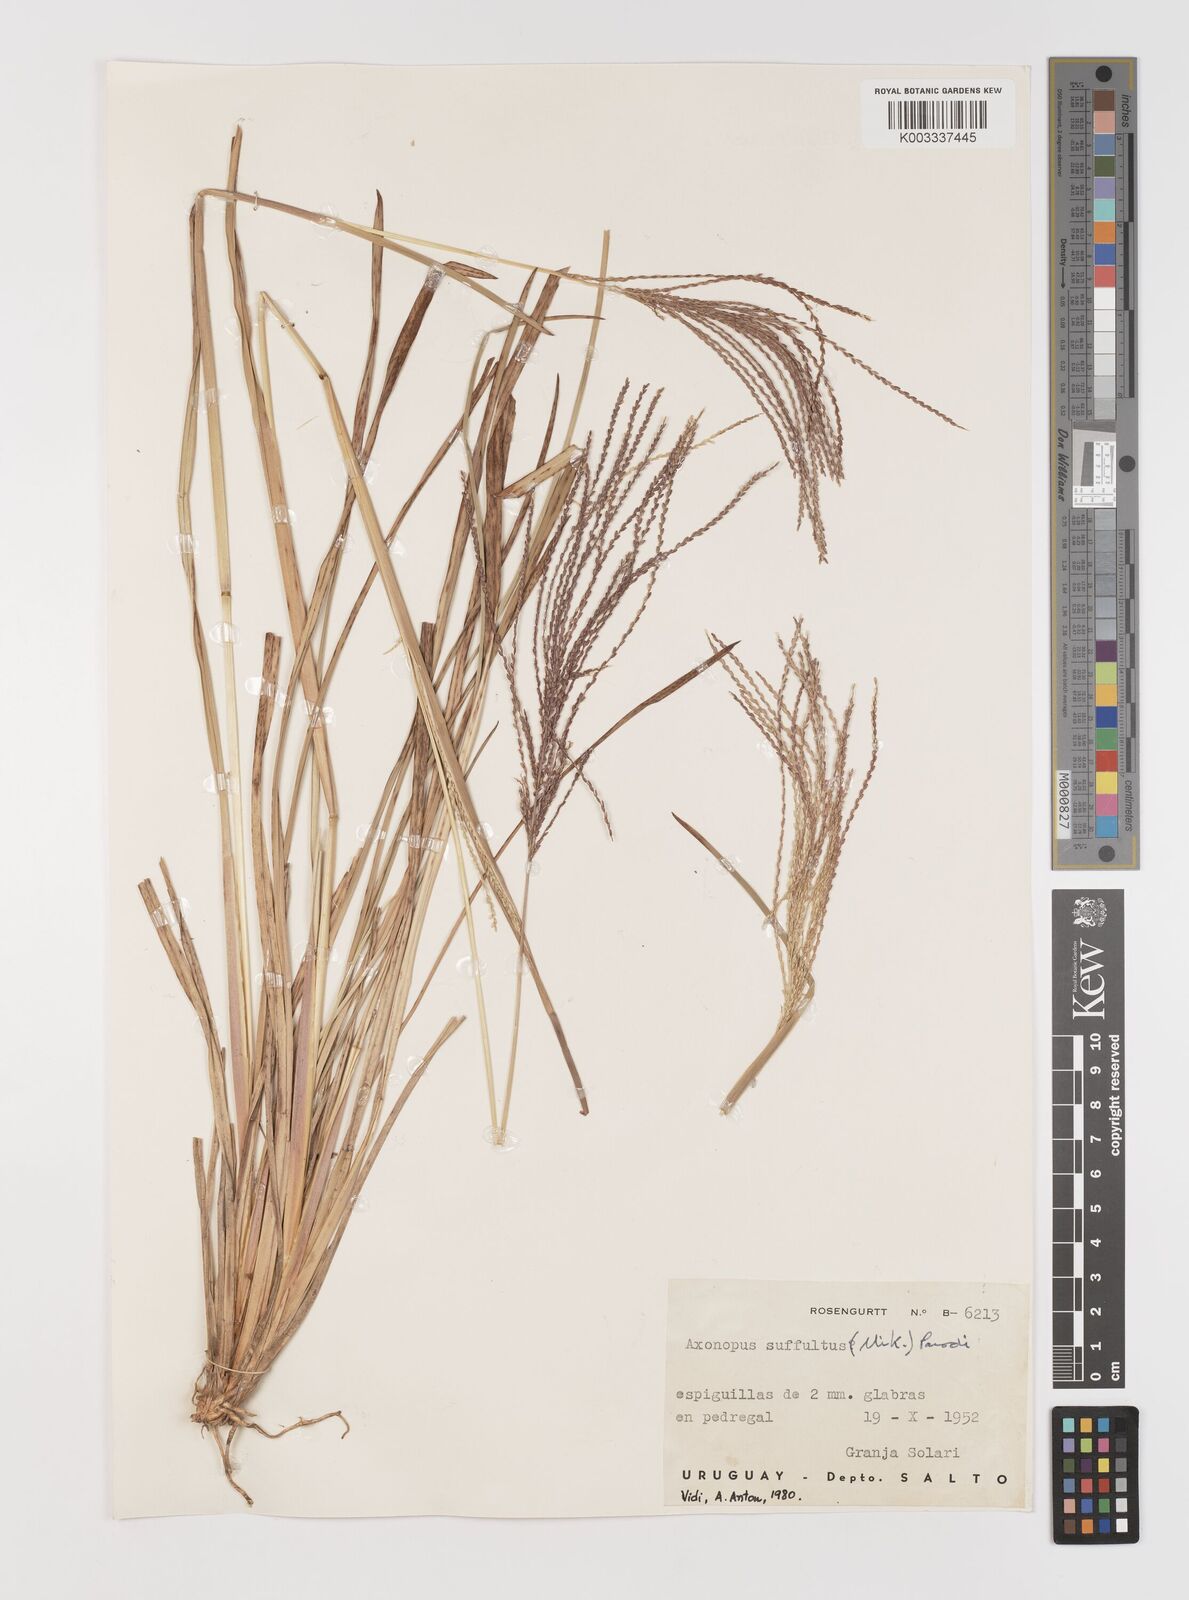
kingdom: Plantae
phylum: Tracheophyta
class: Liliopsida
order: Poales
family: Poaceae
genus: Axonopus
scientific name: Axonopus suffultus
